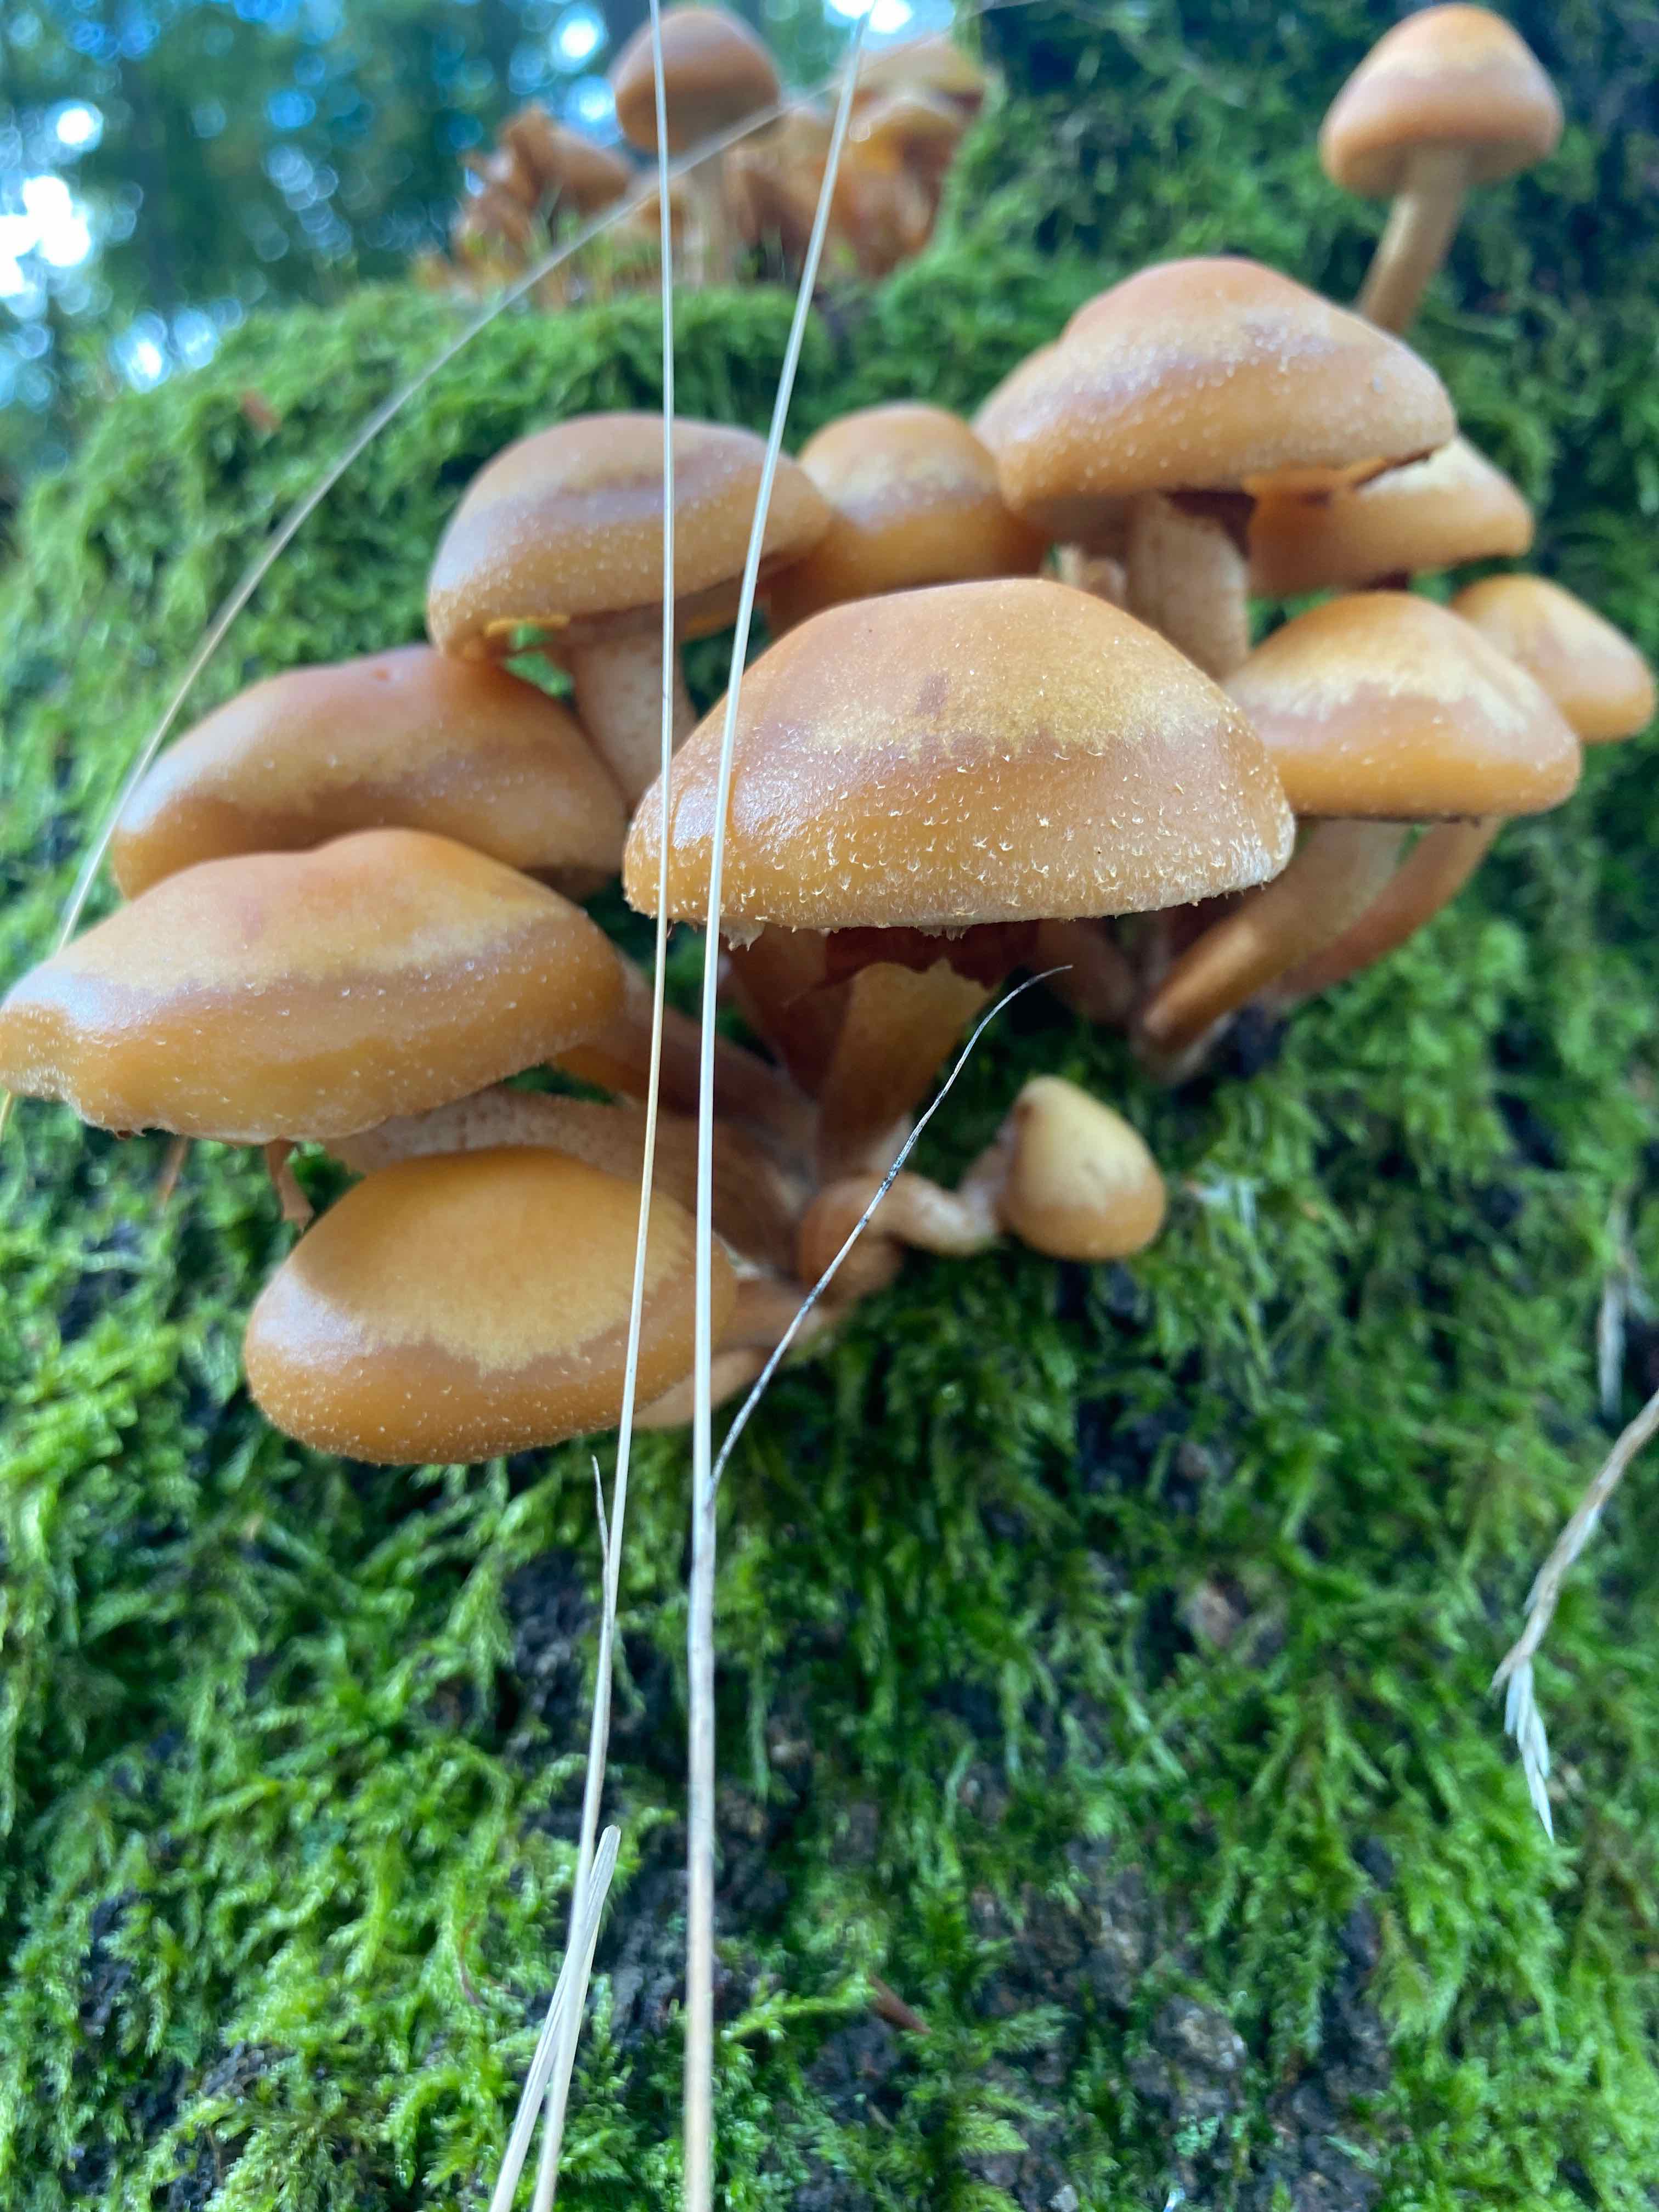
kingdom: Fungi
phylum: Basidiomycota
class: Agaricomycetes
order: Agaricales
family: Strophariaceae
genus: Kuehneromyces
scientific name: Kuehneromyces mutabilis
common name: foranderlig skælhat
